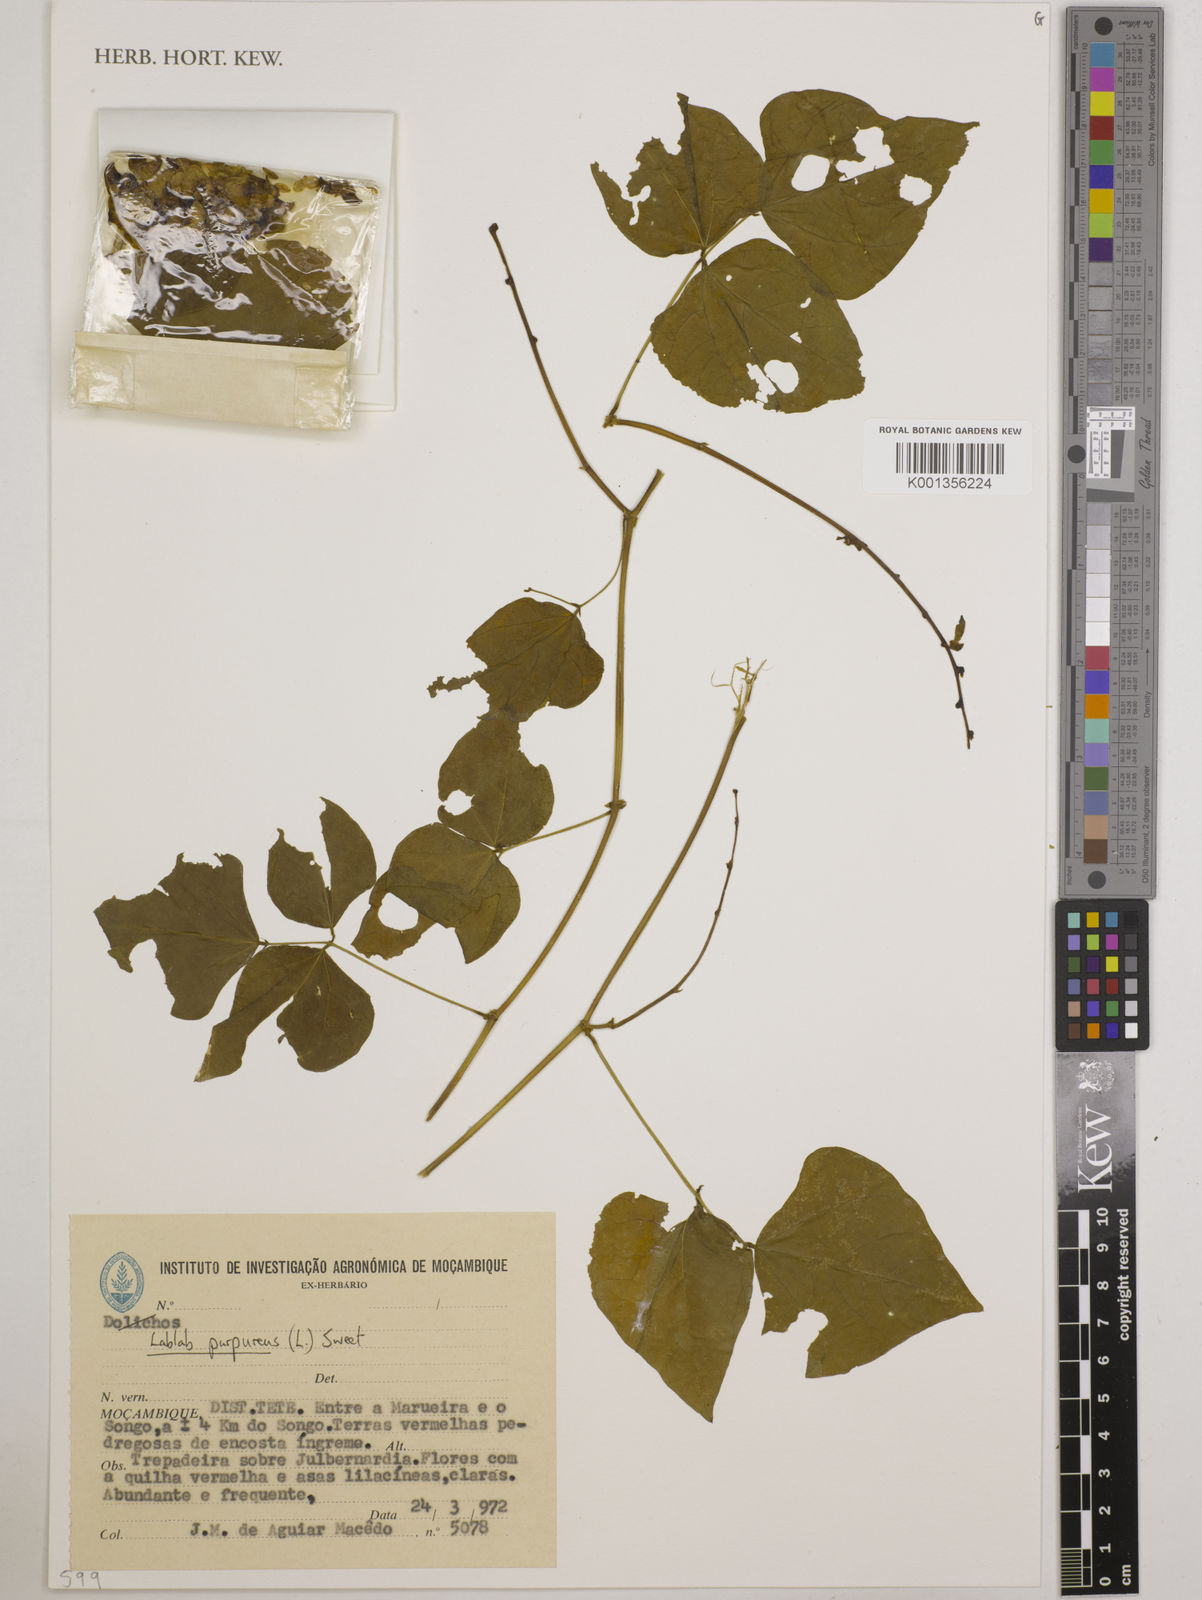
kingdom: Plantae
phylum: Tracheophyta
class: Magnoliopsida
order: Fabales
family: Fabaceae
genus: Lablab
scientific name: Lablab purpureus
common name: Lablab-bean
